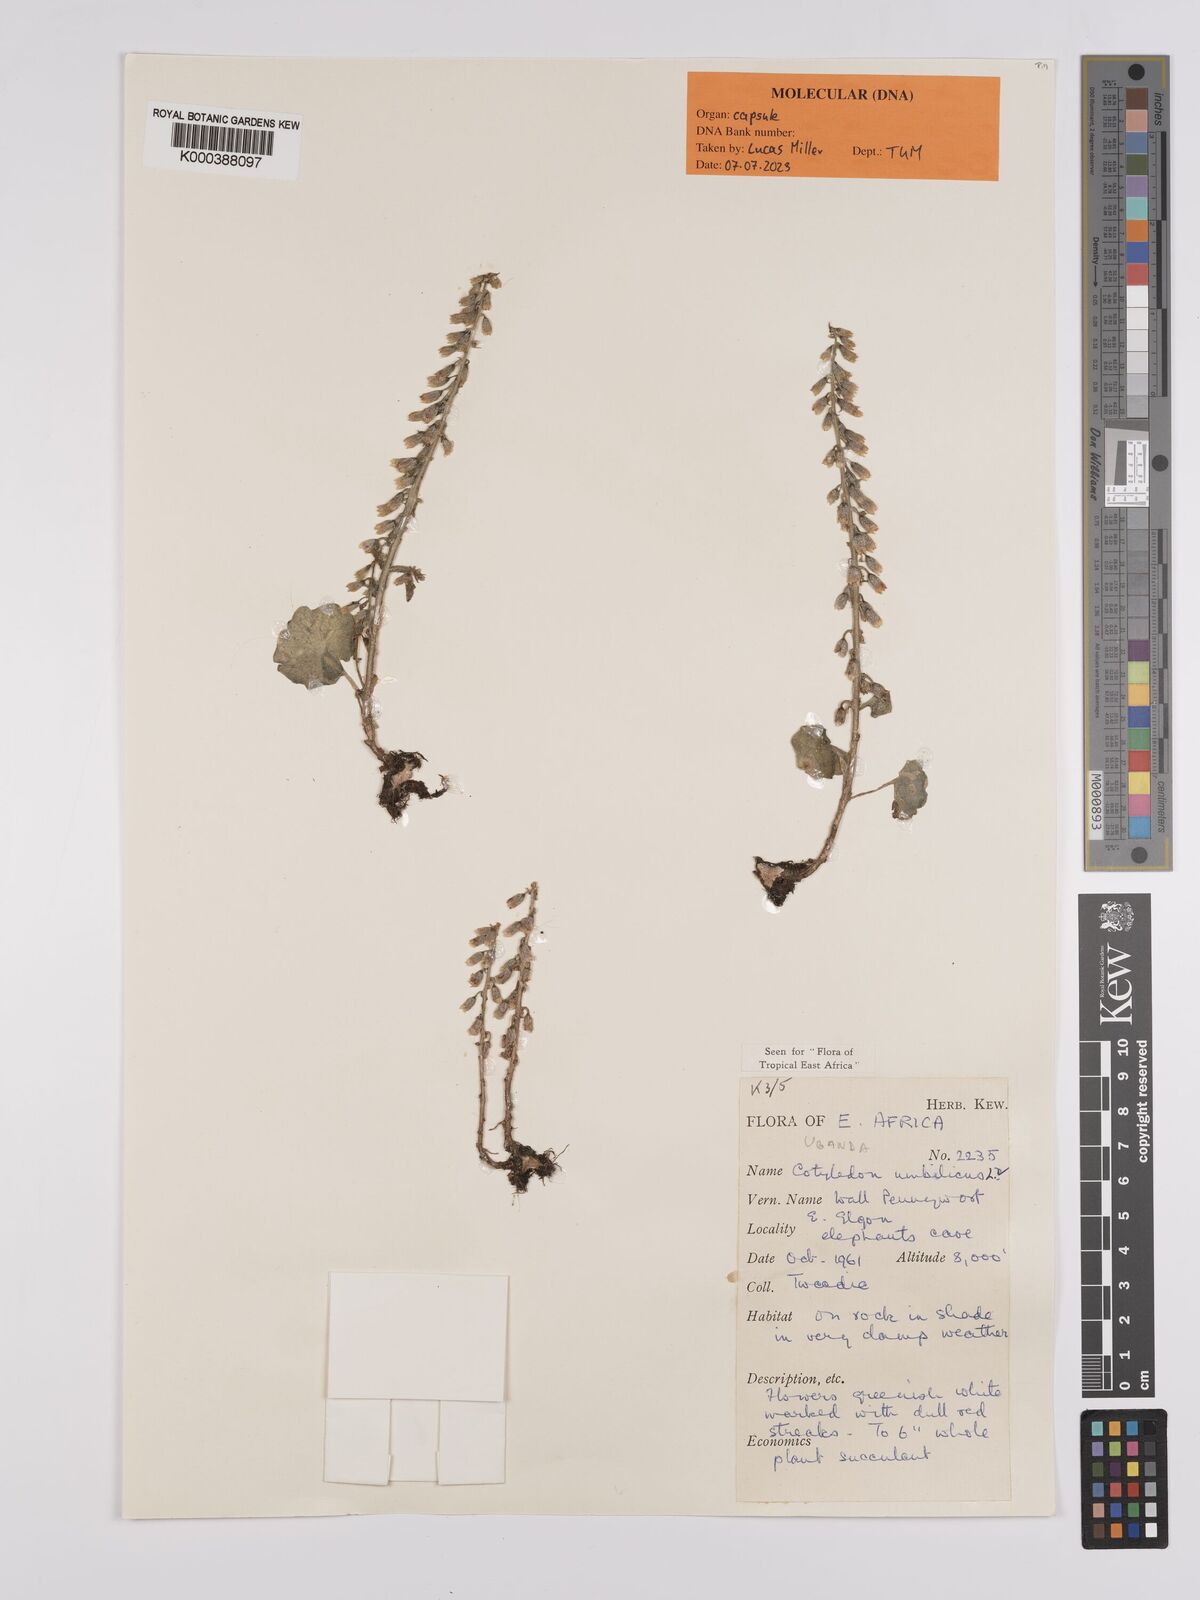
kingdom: Plantae
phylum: Tracheophyta
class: Magnoliopsida
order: Saxifragales
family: Crassulaceae
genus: Umbilicus
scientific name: Umbilicus botryoides
